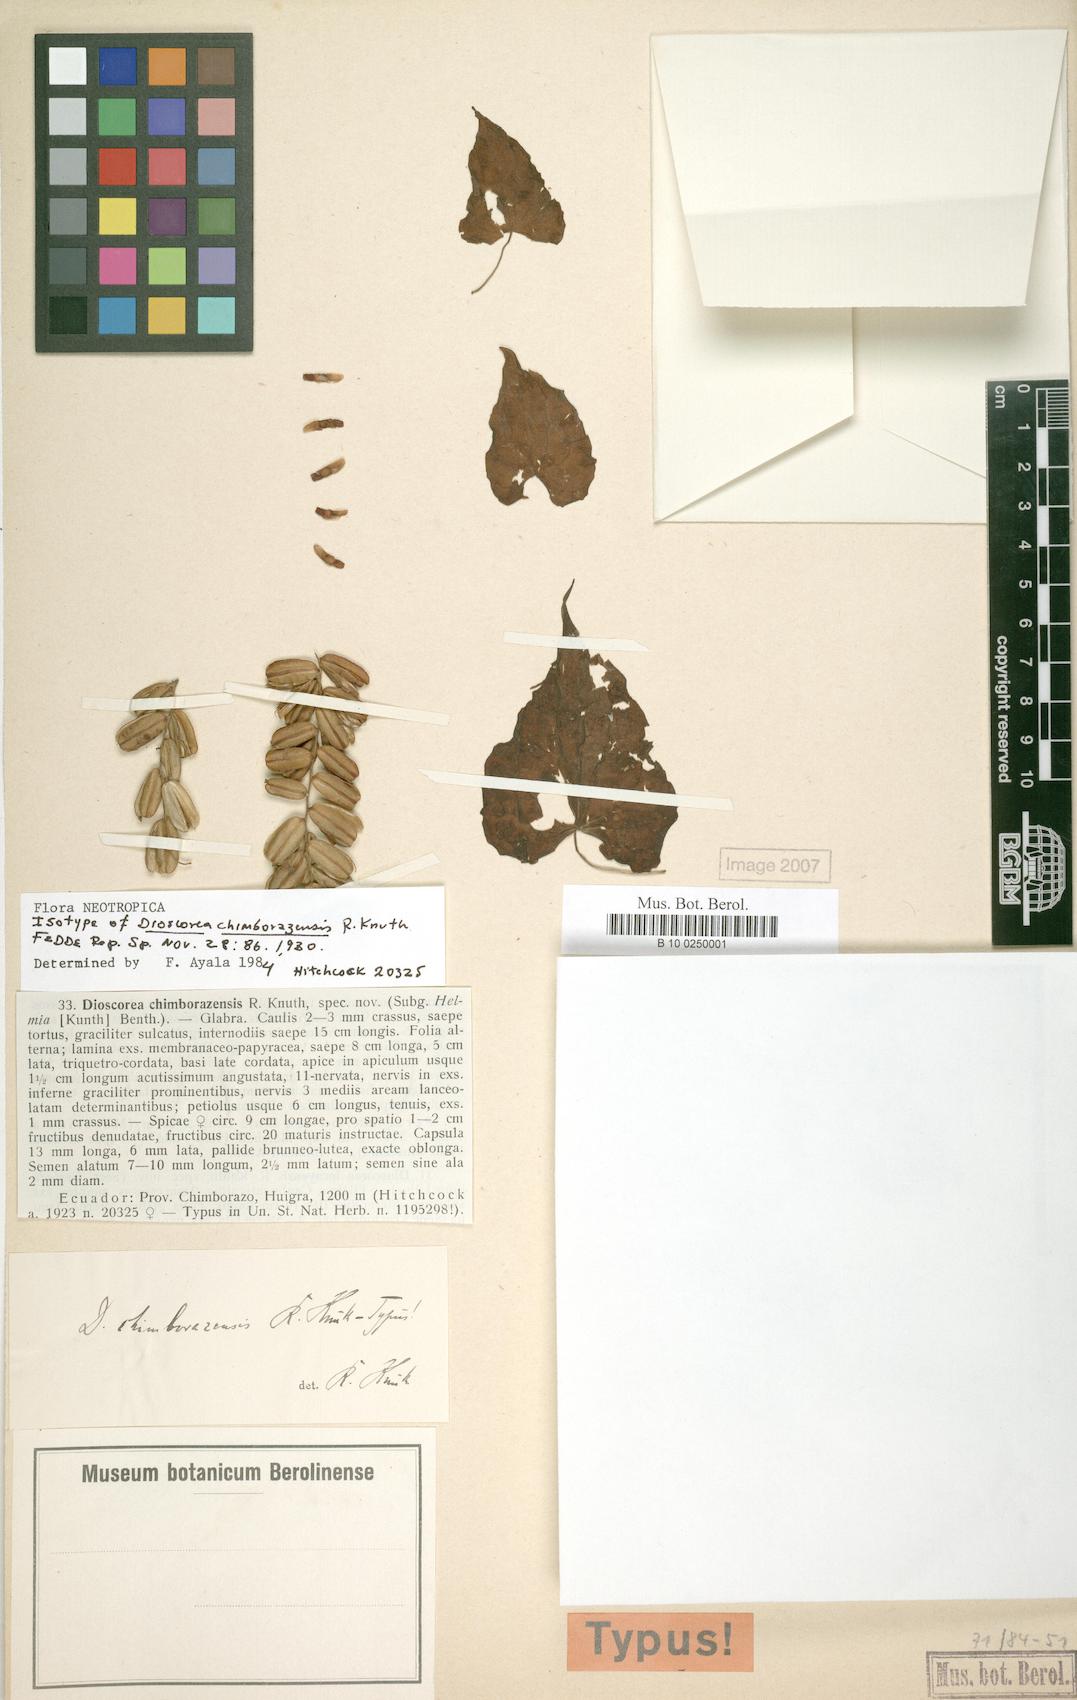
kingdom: Plantae
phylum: Tracheophyta
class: Liliopsida
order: Dioscoreales
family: Dioscoreaceae
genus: Dioscorea
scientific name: Dioscorea chimborazensis
